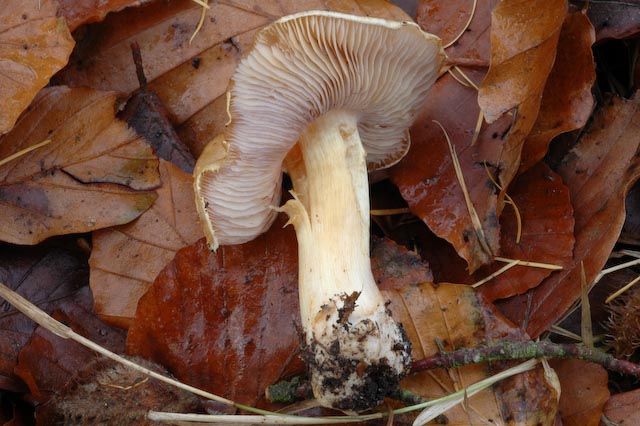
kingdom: Fungi
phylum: Basidiomycota
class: Agaricomycetes
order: Agaricales
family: Cortinariaceae
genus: Phlegmacium
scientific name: Phlegmacium subdecolorans
